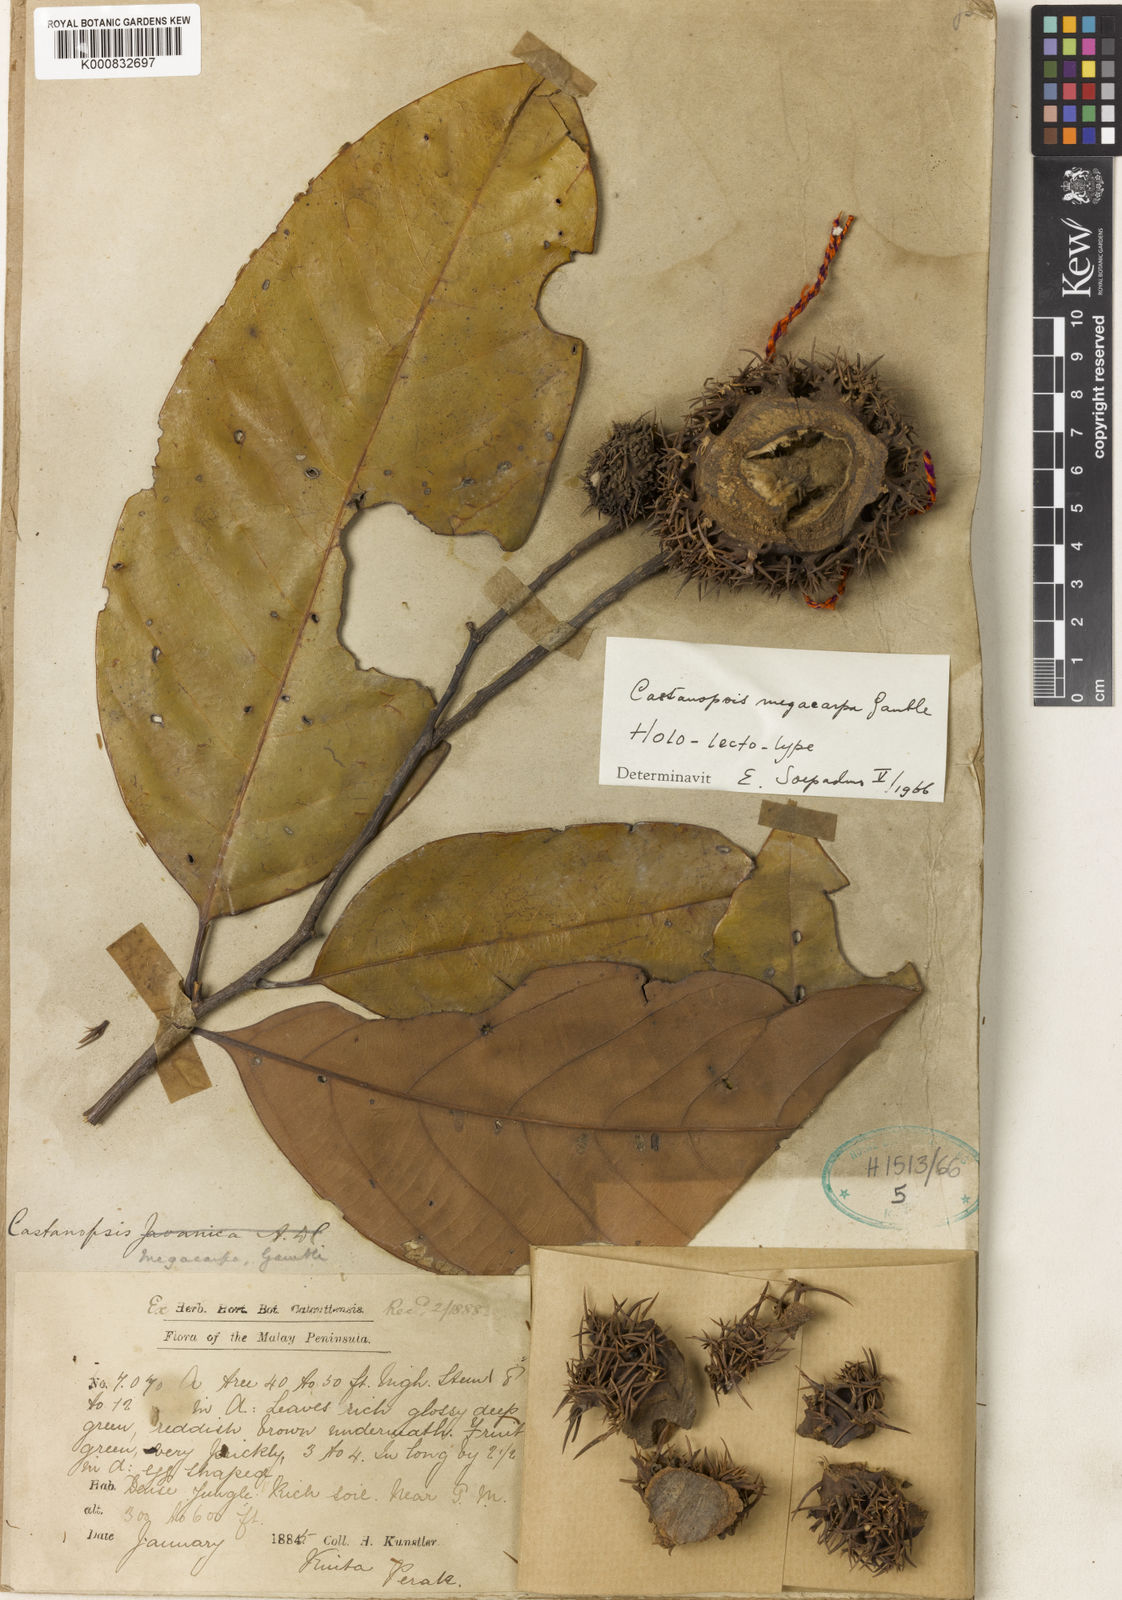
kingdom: Plantae
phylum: Tracheophyta
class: Magnoliopsida
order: Fagales
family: Fagaceae
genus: Castanopsis
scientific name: Castanopsis megacarpa
